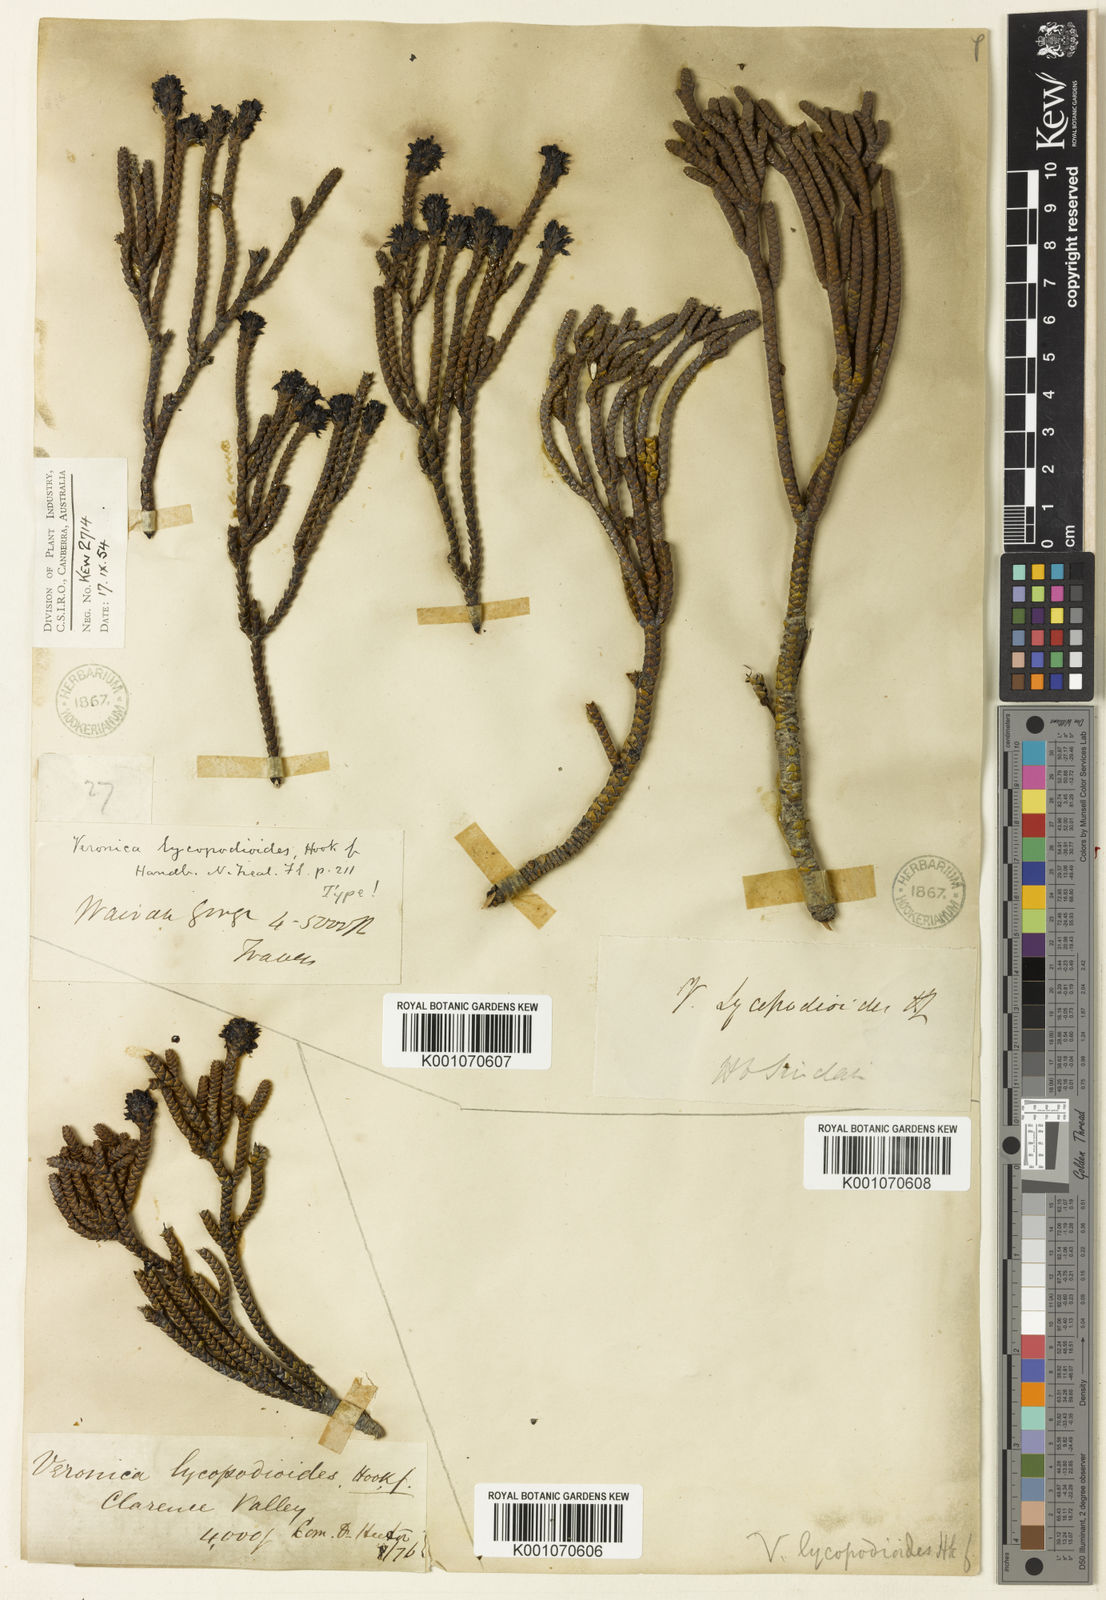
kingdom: Plantae
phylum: Tracheophyta
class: Magnoliopsida
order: Lamiales
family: Plantaginaceae
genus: Veronica
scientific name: Veronica lycopodioides
